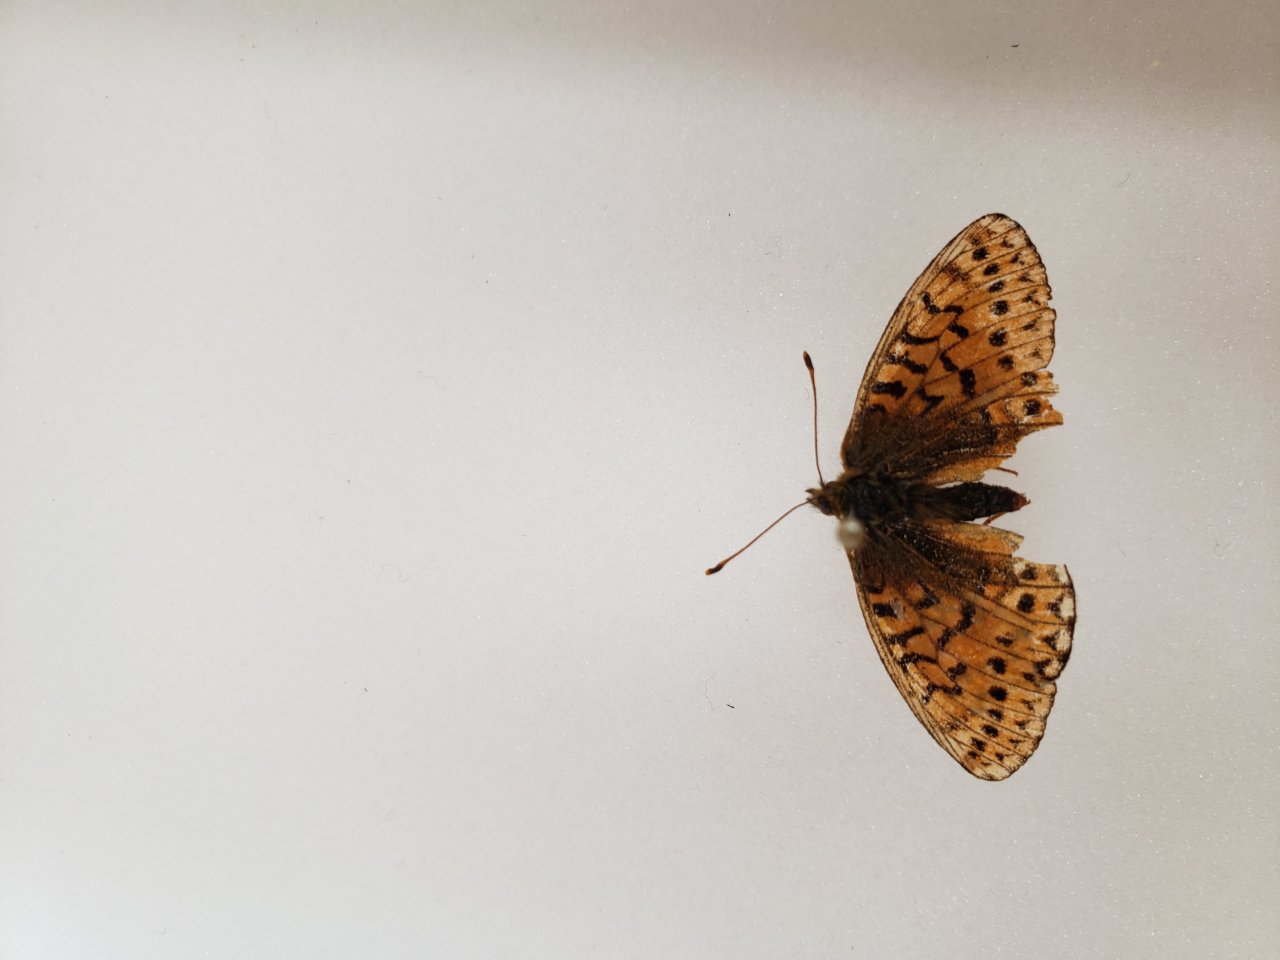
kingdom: Animalia
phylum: Arthropoda
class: Insecta
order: Lepidoptera
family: Nymphalidae
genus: Boloria
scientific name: Boloria eunomia
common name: Bog Fritillary
